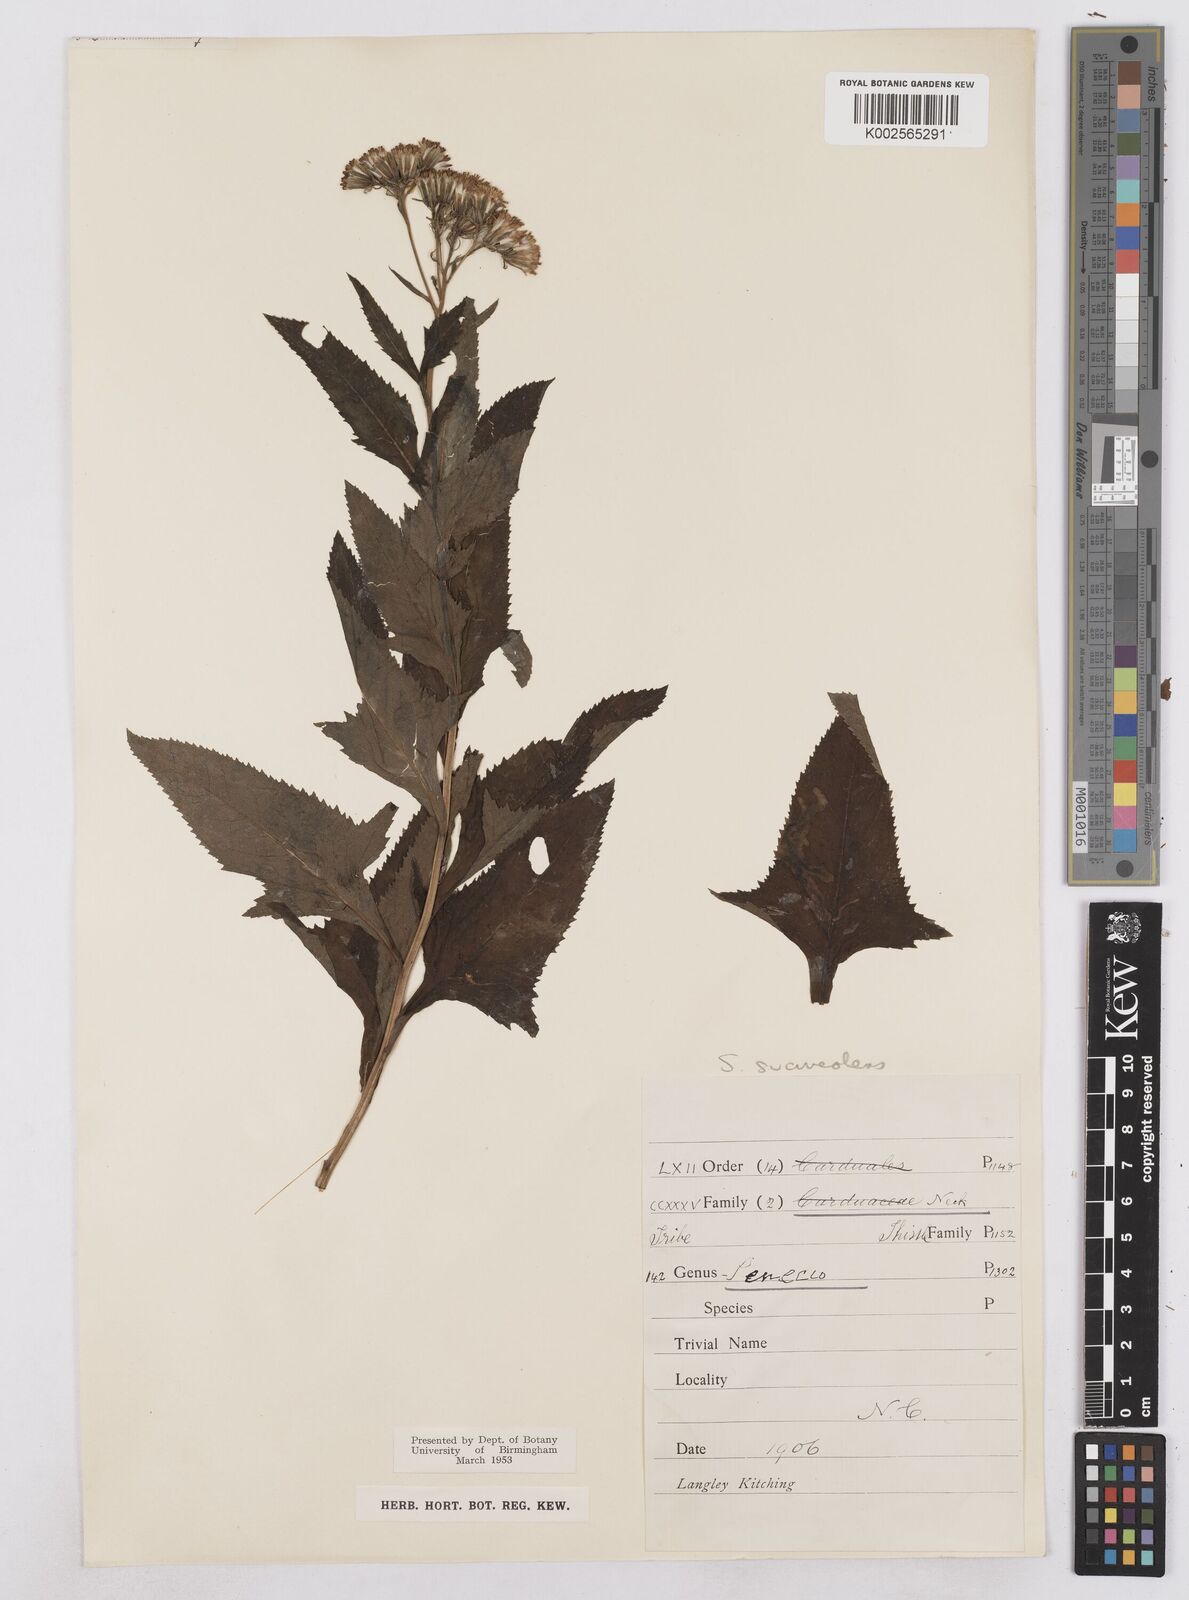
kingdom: Plantae
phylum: Tracheophyta
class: Magnoliopsida
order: Asterales
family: Asteraceae
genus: Hasteola
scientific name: Hasteola suaveolens
